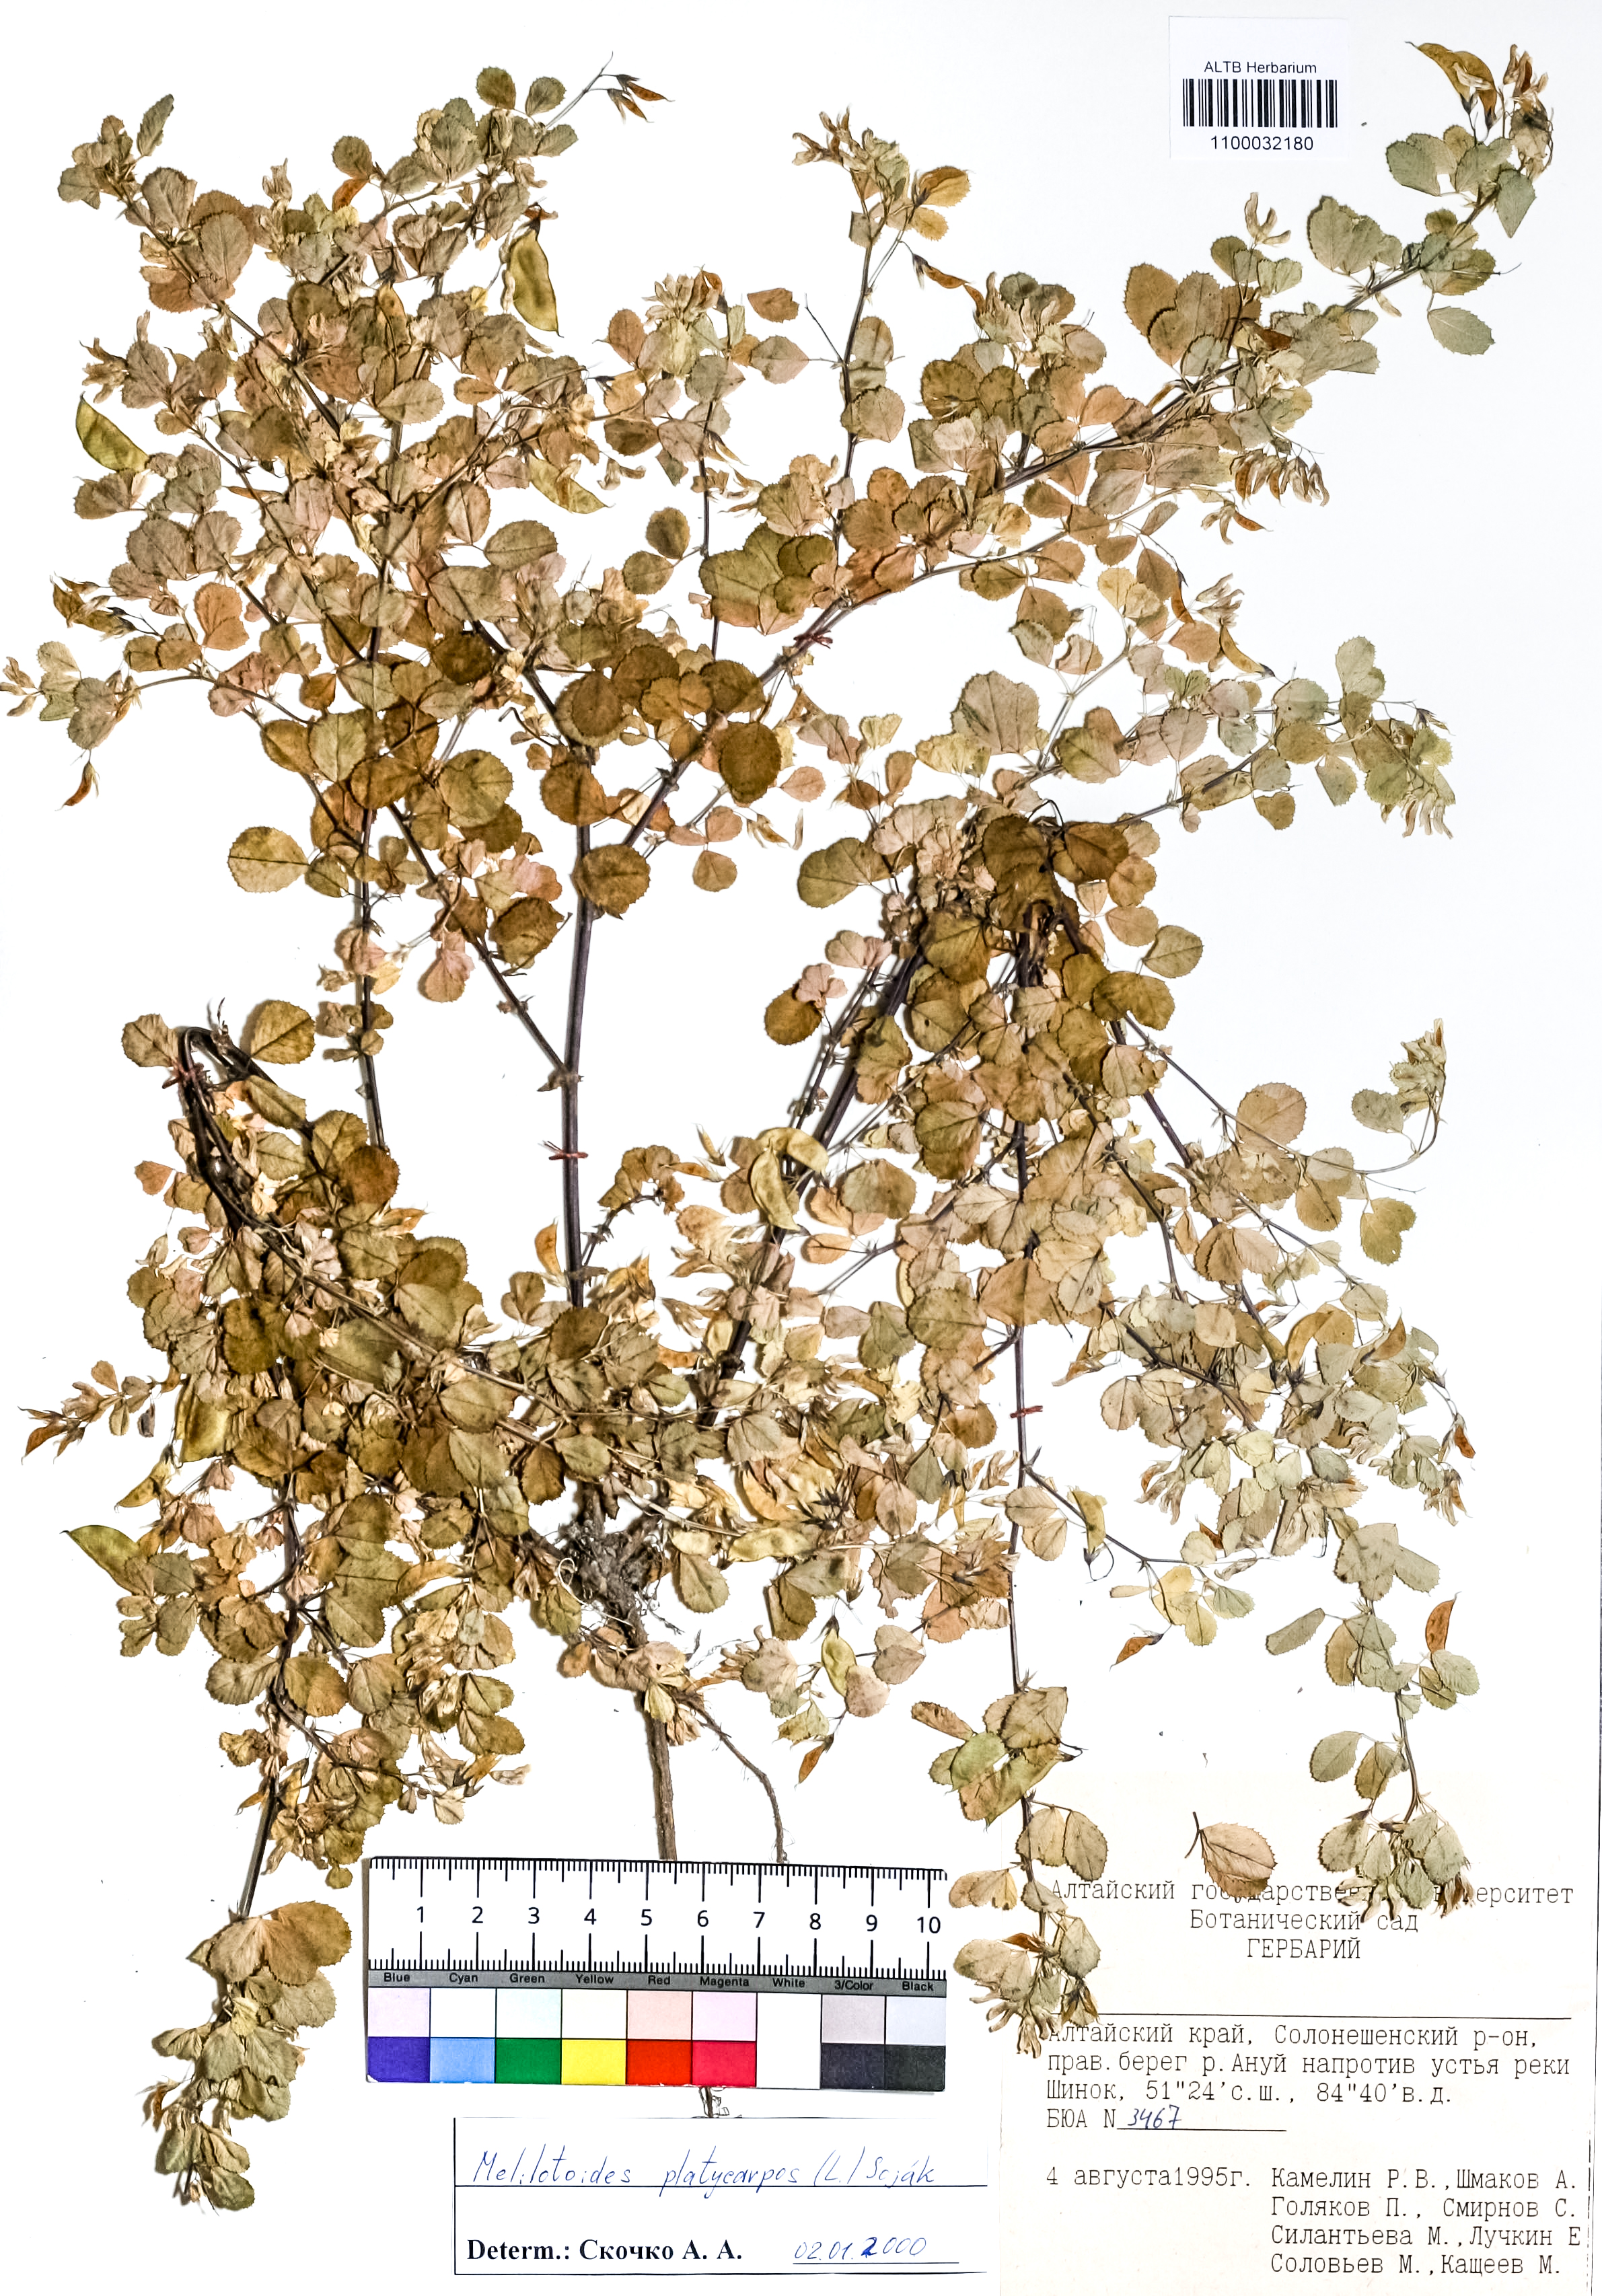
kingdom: Plantae
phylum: Tracheophyta
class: Magnoliopsida
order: Fabales
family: Fabaceae
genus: Medicago
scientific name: Medicago platycarpos
